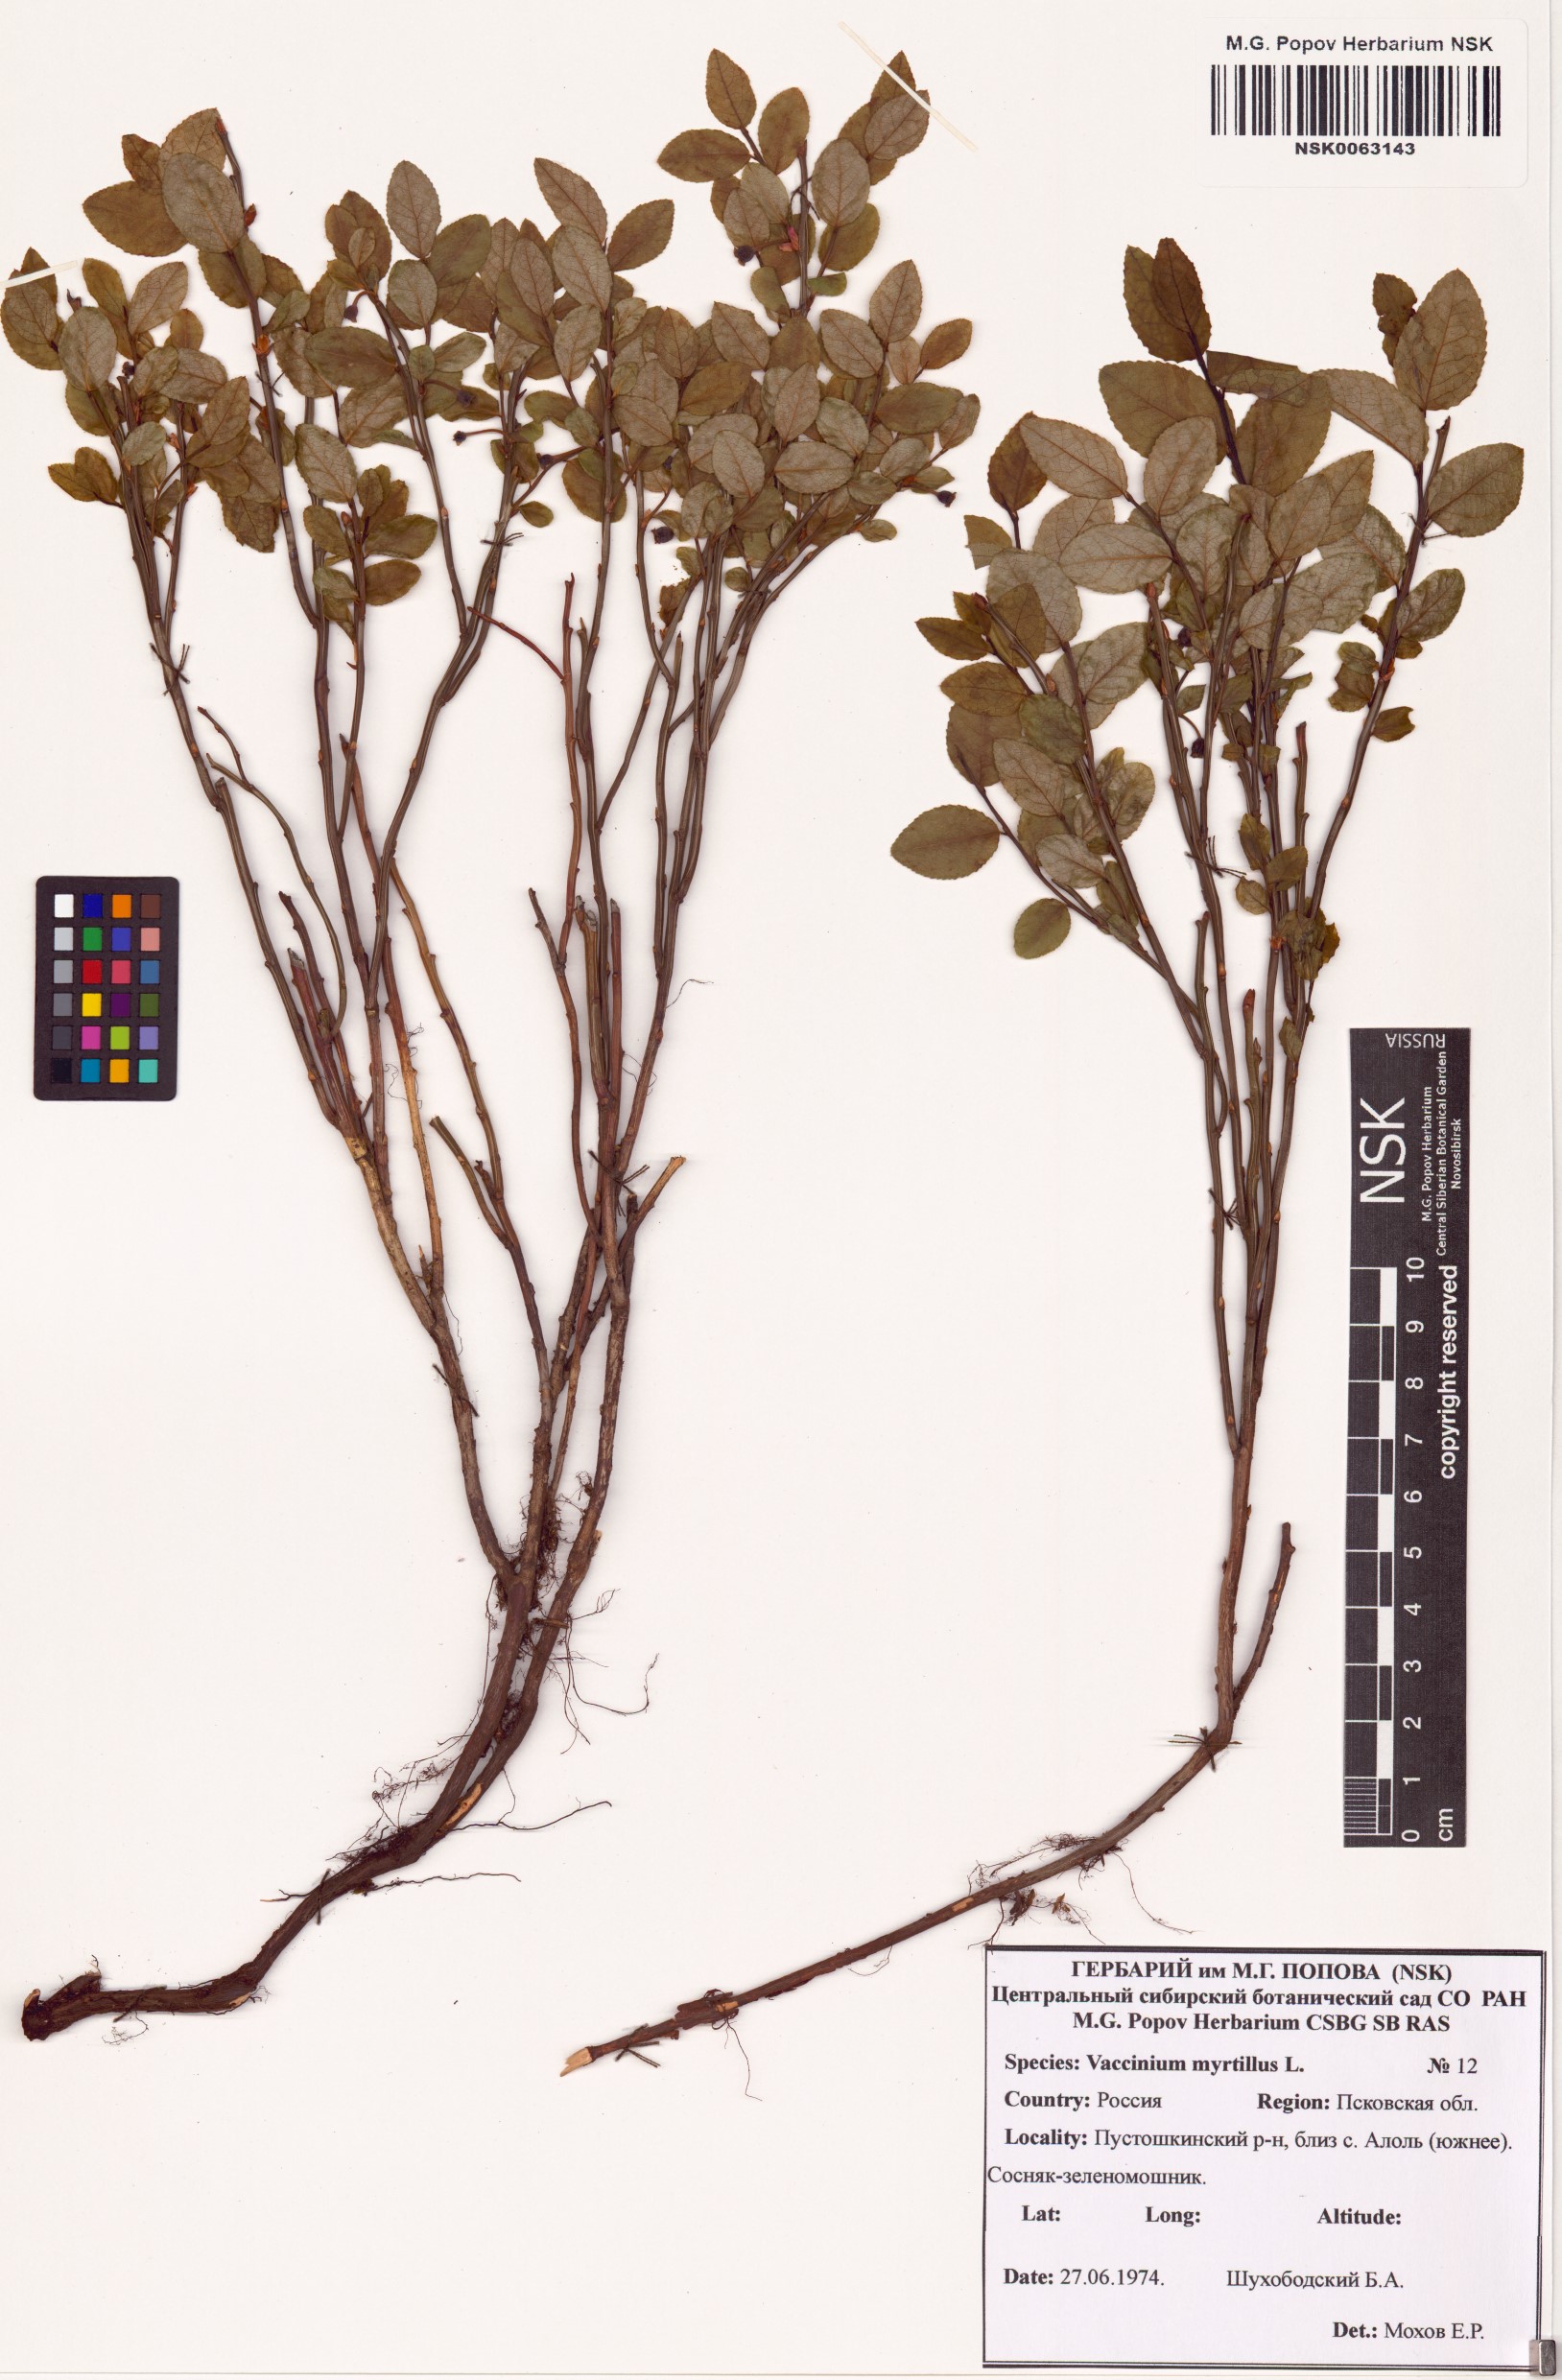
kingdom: Plantae
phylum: Tracheophyta
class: Magnoliopsida
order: Ericales
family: Ericaceae
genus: Vaccinium
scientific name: Vaccinium myrtillus
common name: Bilberry
